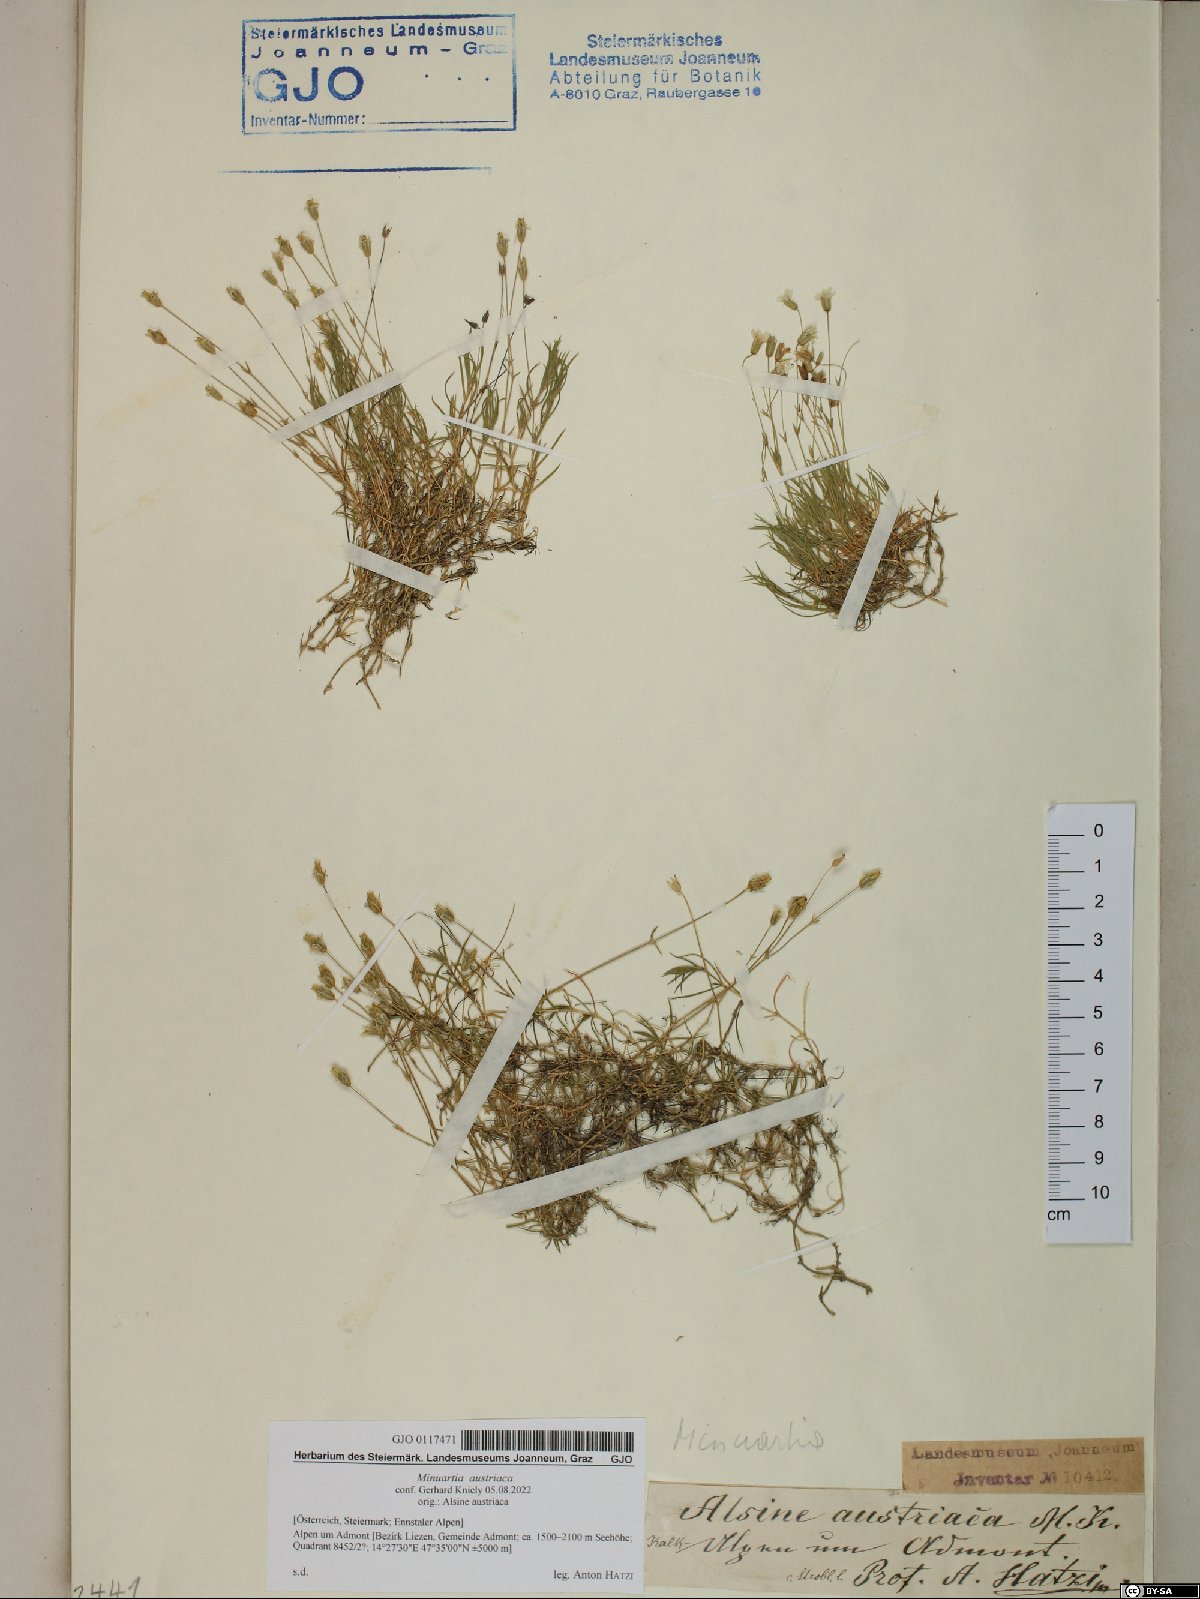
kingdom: Plantae
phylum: Tracheophyta
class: Magnoliopsida
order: Caryophyllales
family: Caryophyllaceae
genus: Sabulina
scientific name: Sabulina austriaca
